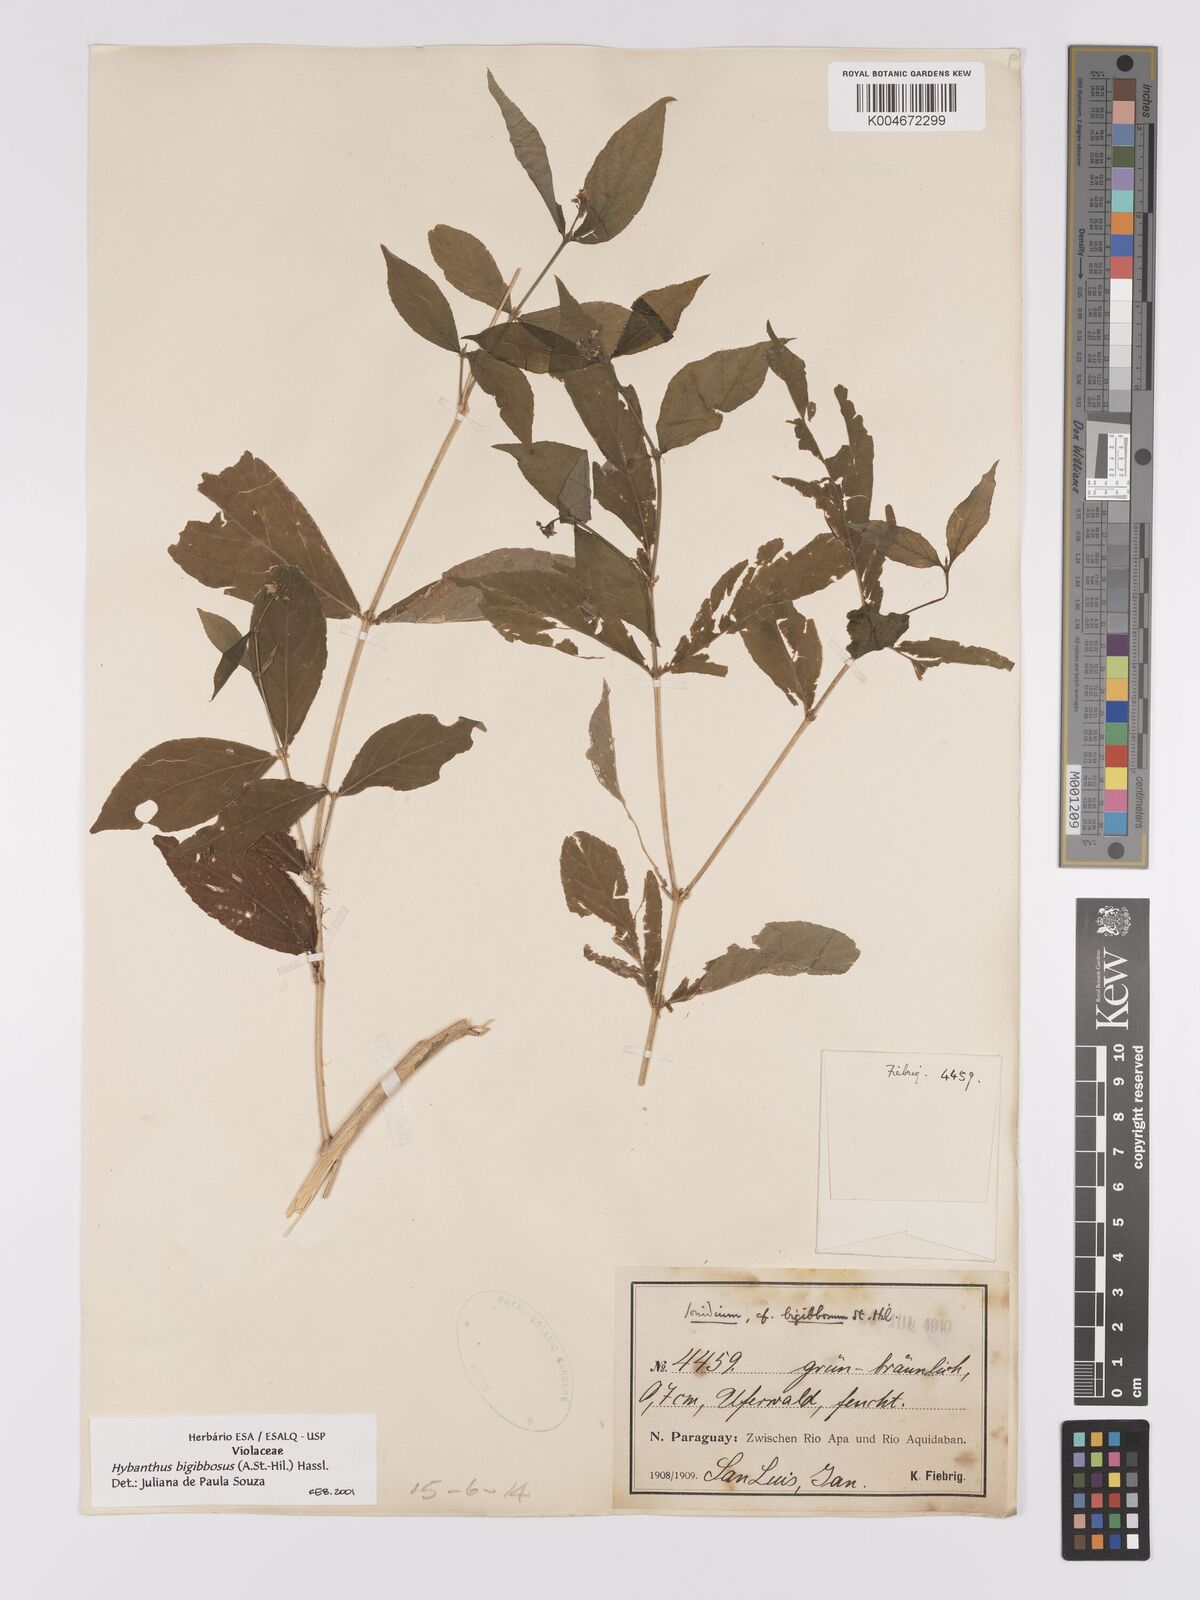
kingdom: Plantae
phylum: Tracheophyta
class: Magnoliopsida
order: Malpighiales
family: Violaceae
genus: Pombalia
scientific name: Pombalia bigibbosa
